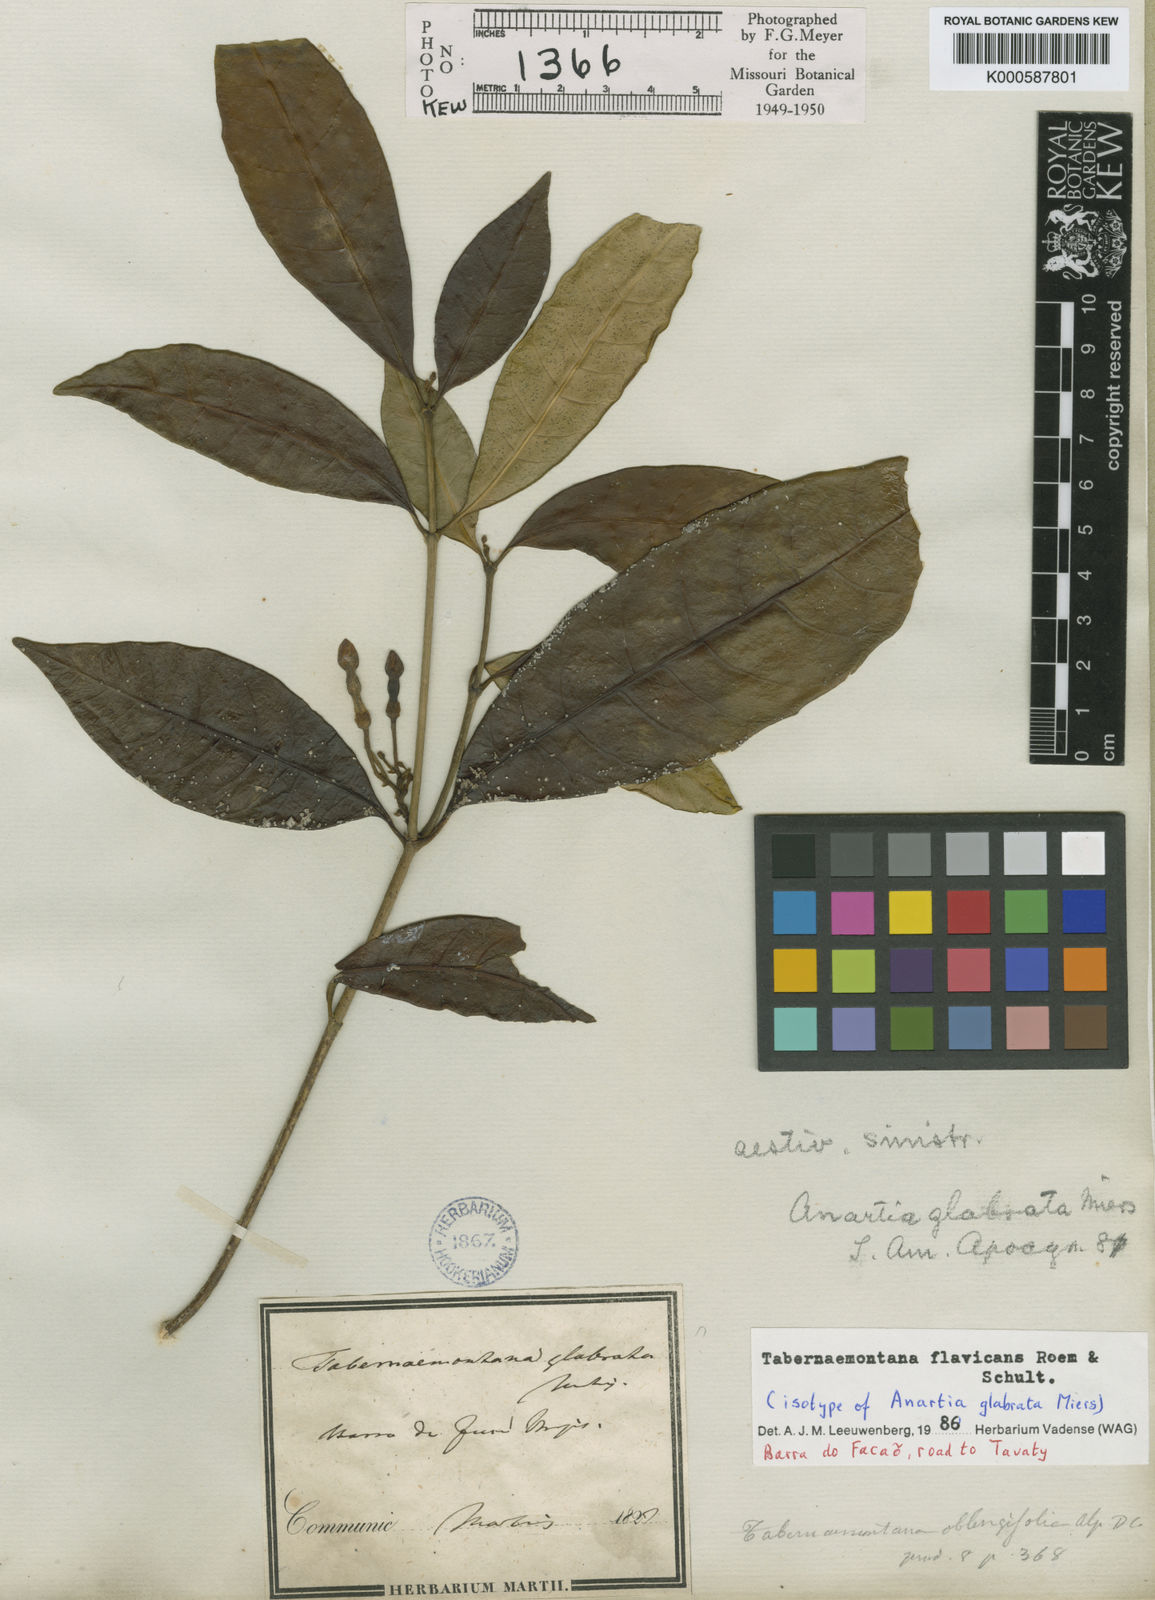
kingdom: Plantae
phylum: Tracheophyta
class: Magnoliopsida
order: Gentianales
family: Apocynaceae
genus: Tabernaemontana
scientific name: Tabernaemontana flavicans
